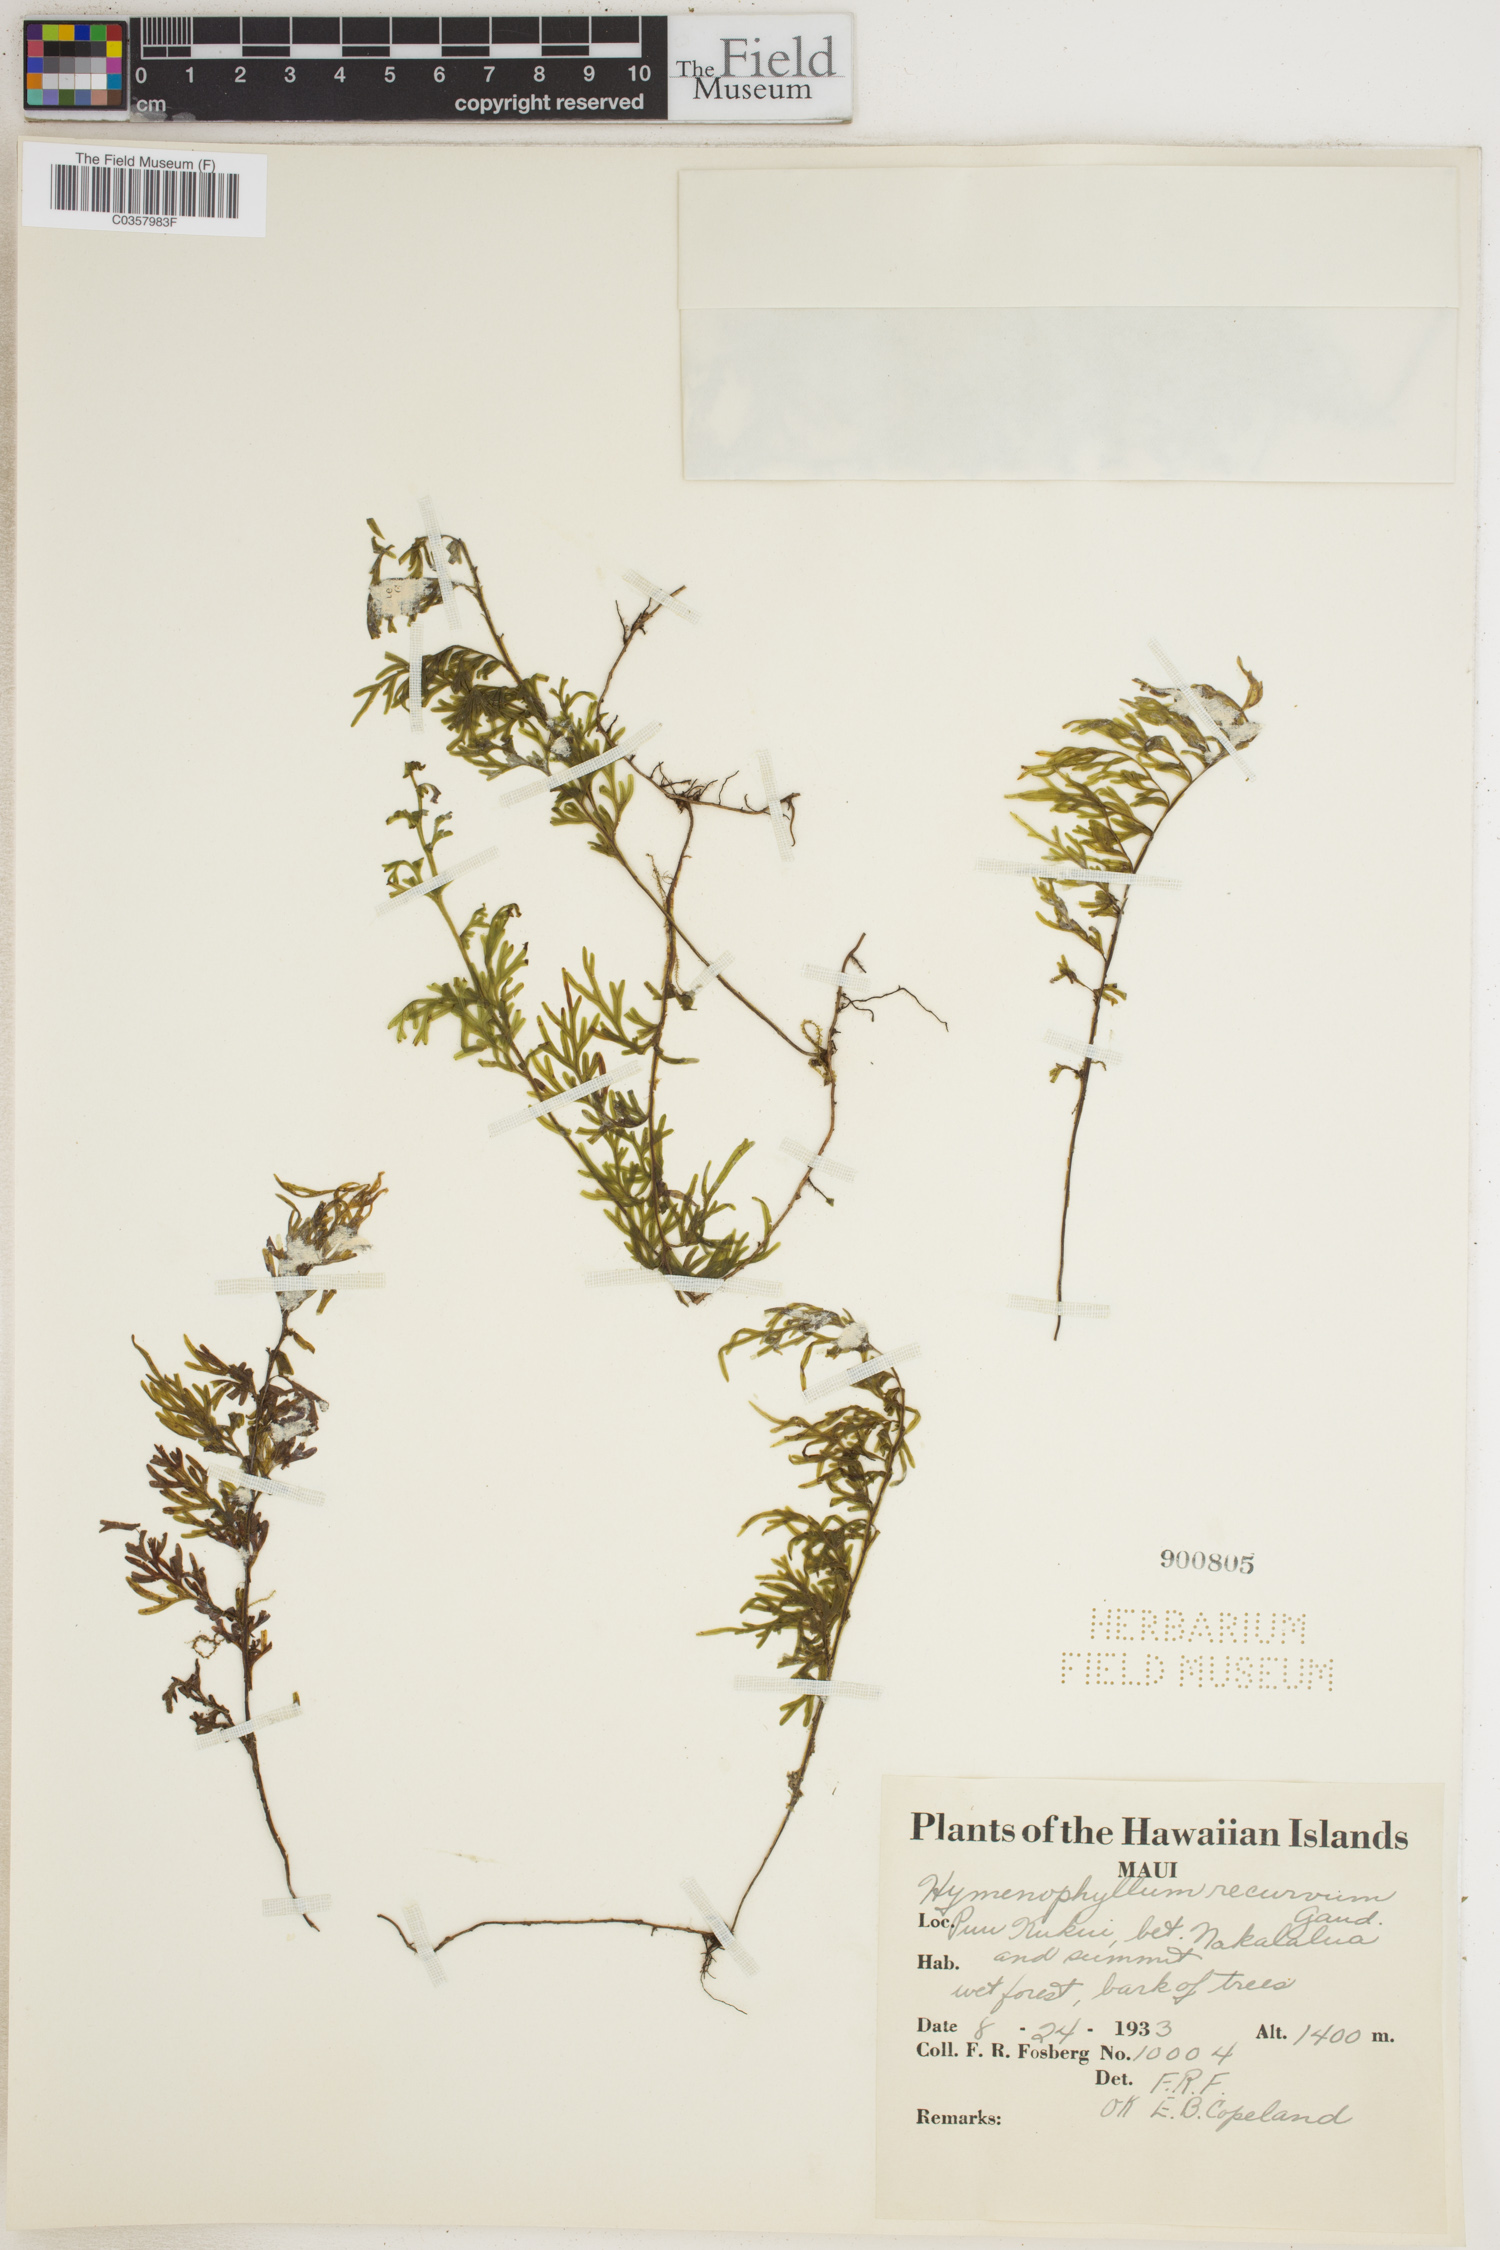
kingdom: Plantae
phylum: Tracheophyta
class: Polypodiopsida
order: Hymenophyllales
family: Hymenophyllaceae
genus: Hymenophyllum
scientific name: Hymenophyllum recurvum
